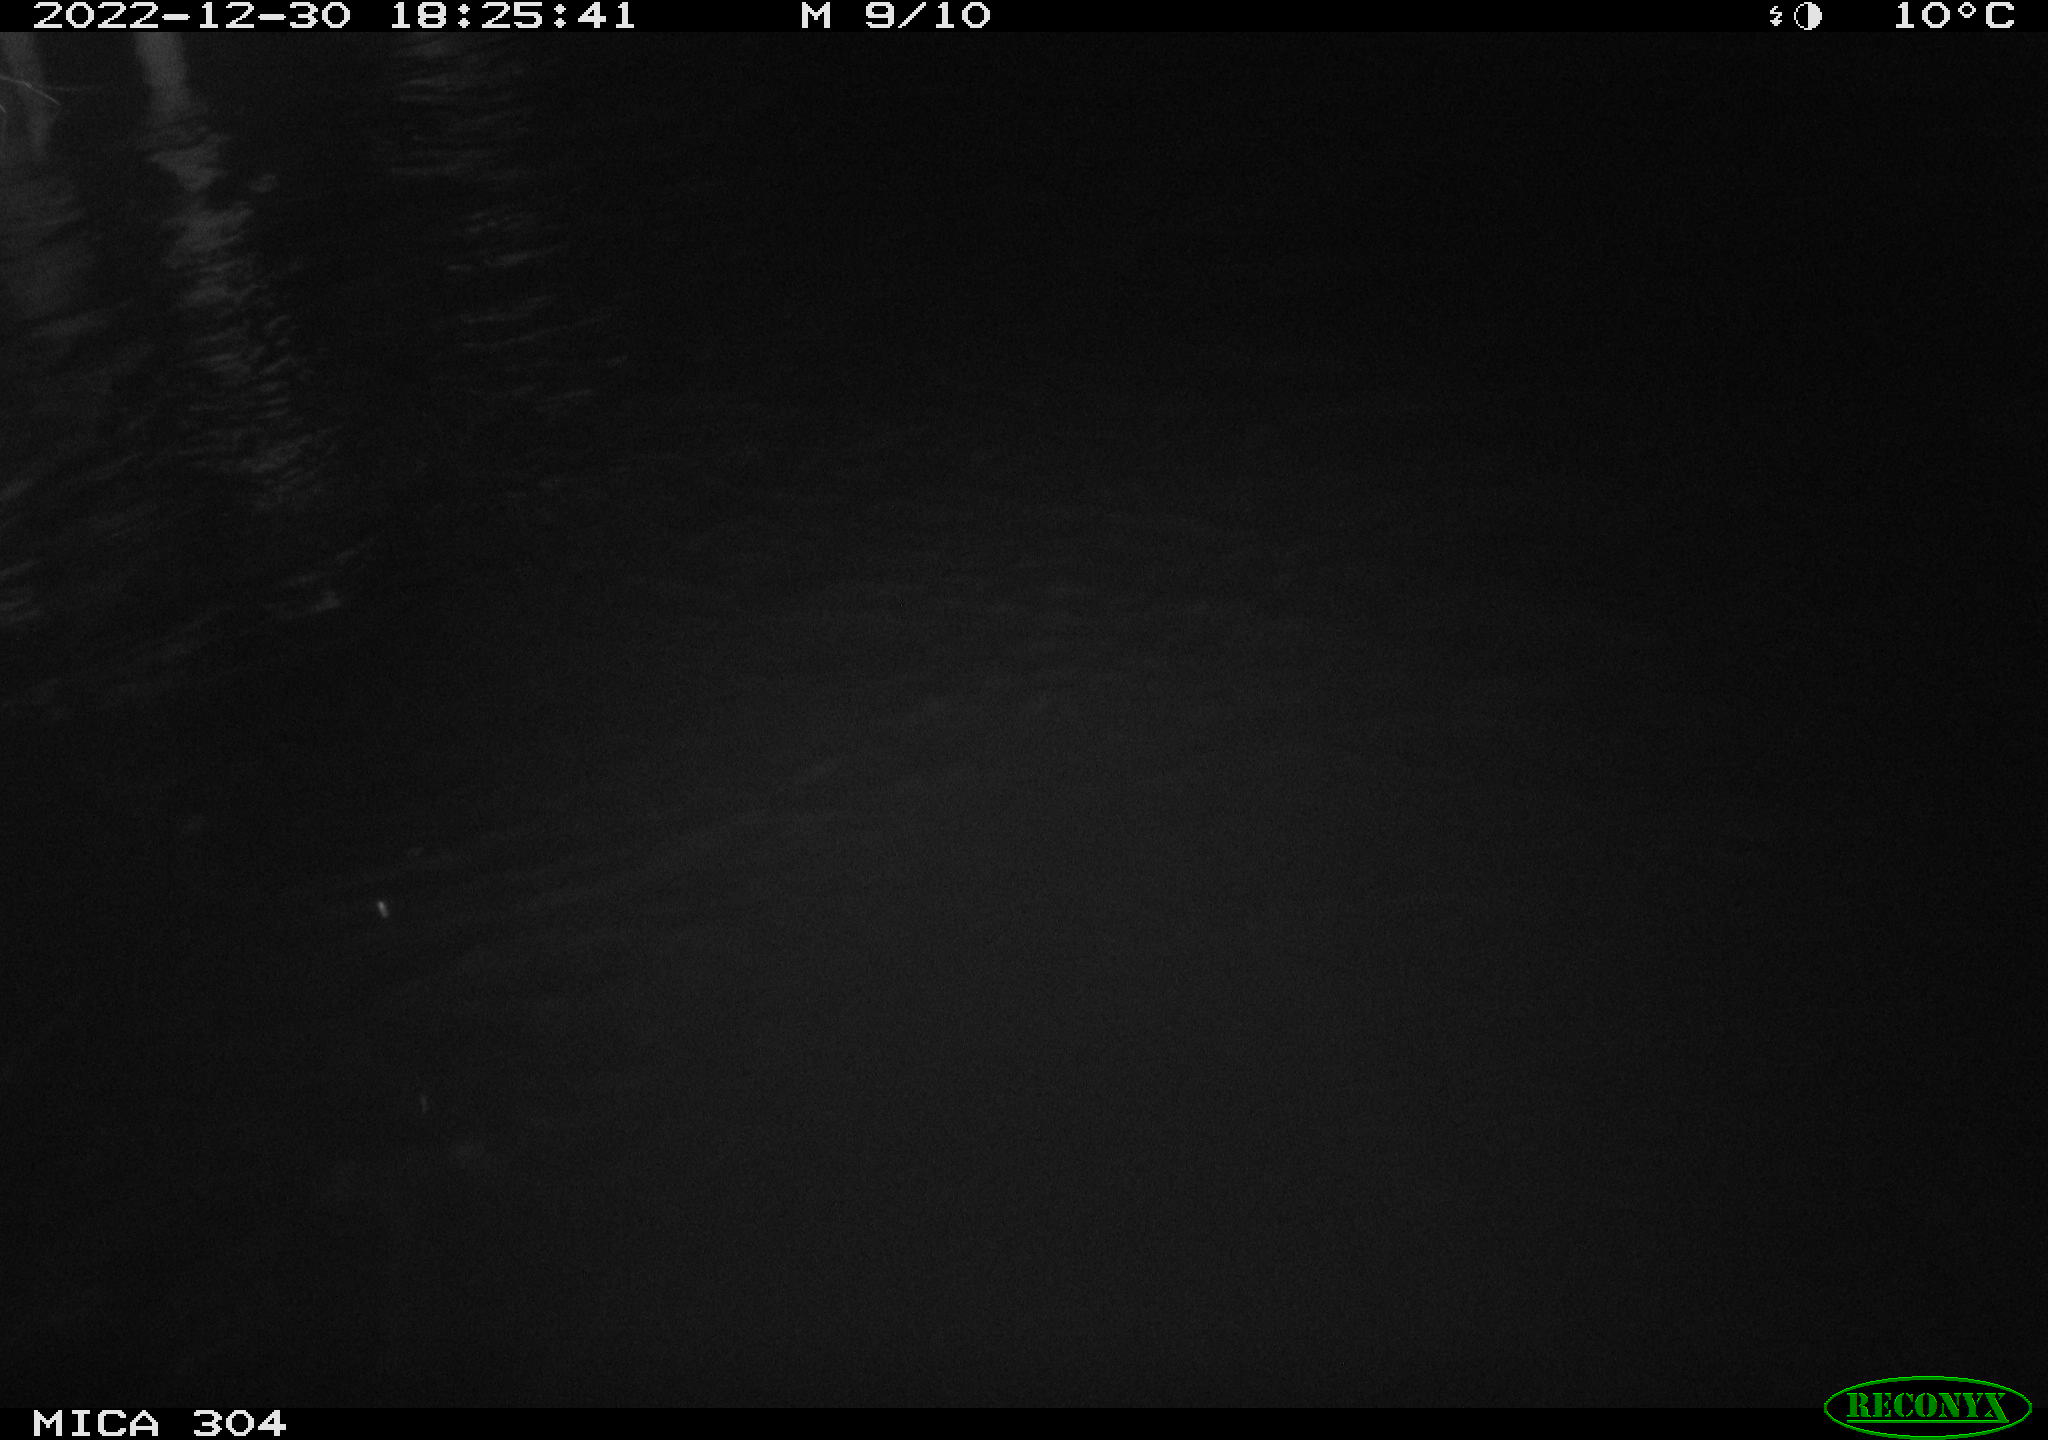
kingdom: Animalia
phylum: Chordata
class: Aves
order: Anseriformes
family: Anatidae
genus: Anas
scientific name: Anas
